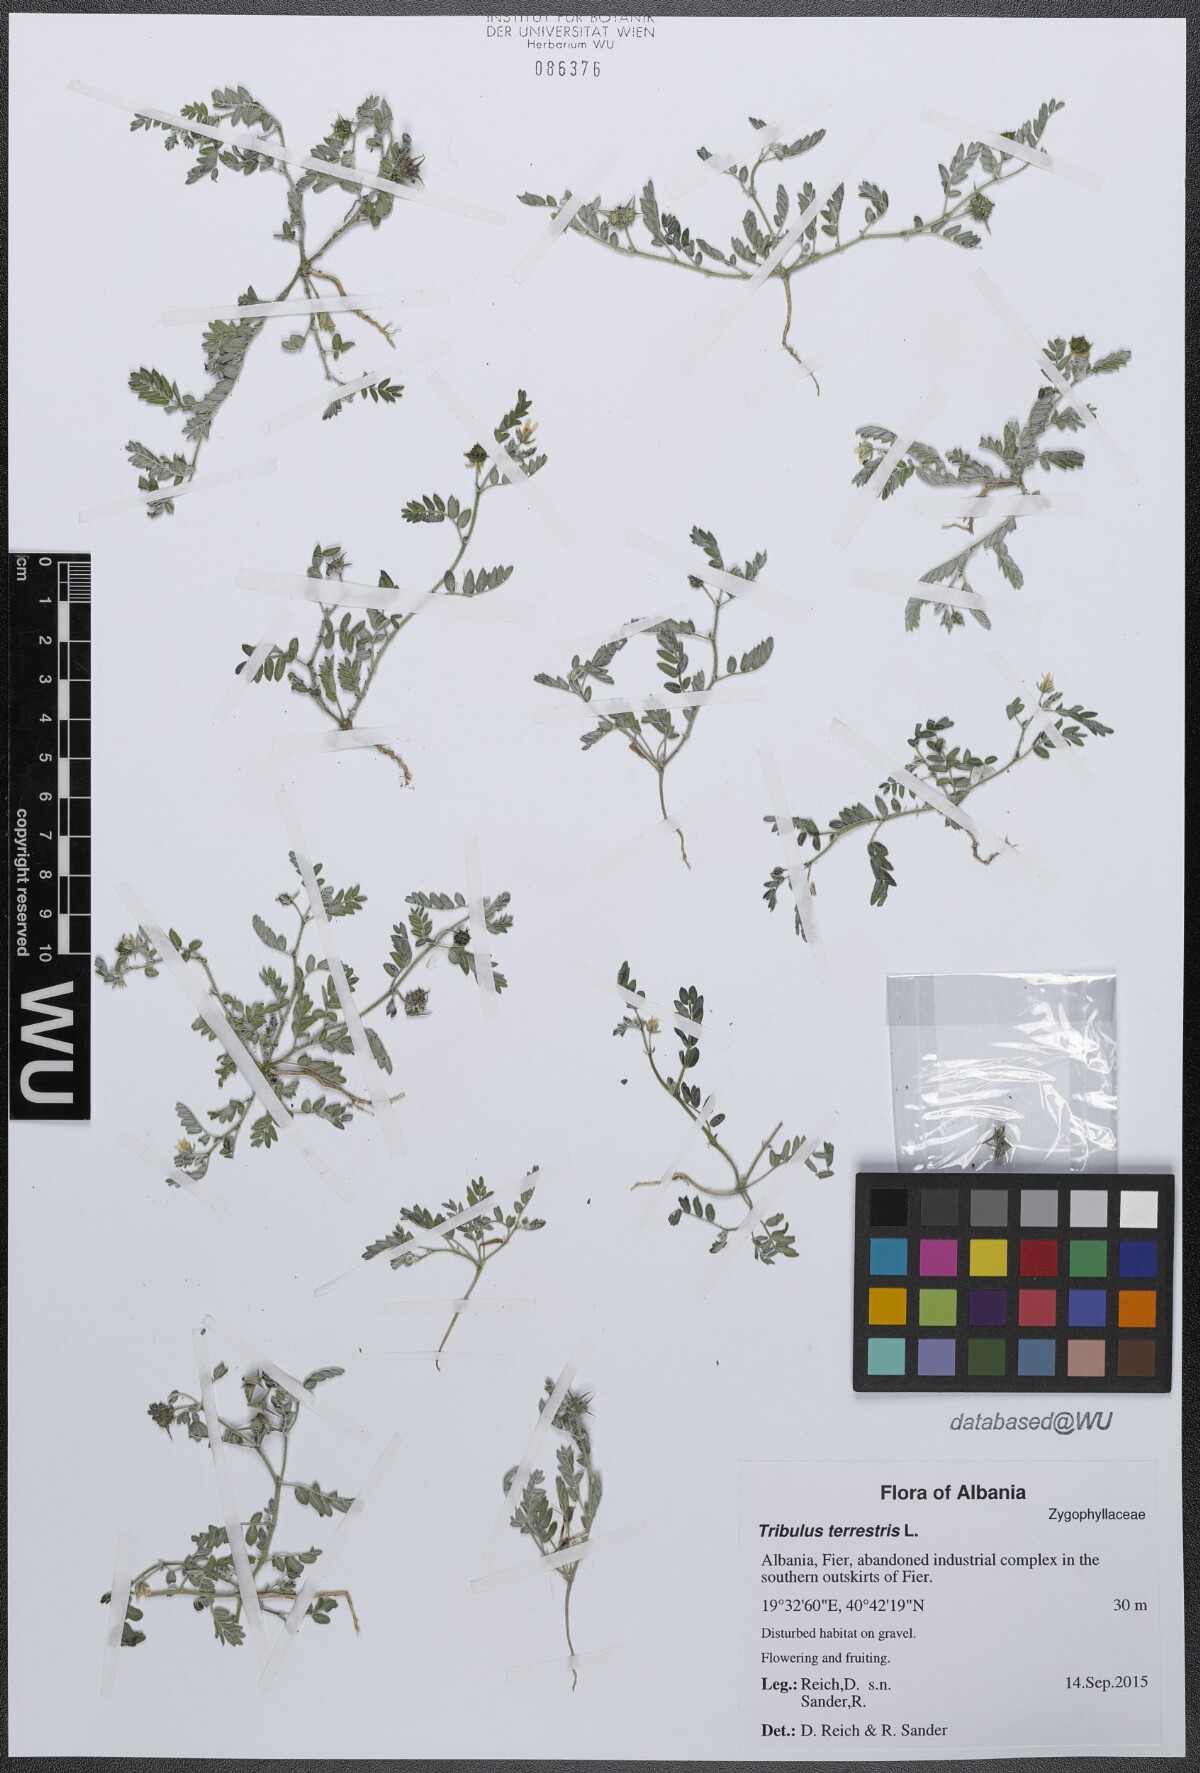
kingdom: Plantae
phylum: Tracheophyta
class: Magnoliopsida
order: Zygophyllales
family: Zygophyllaceae
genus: Tribulus
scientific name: Tribulus terrestris
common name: Puncturevine
